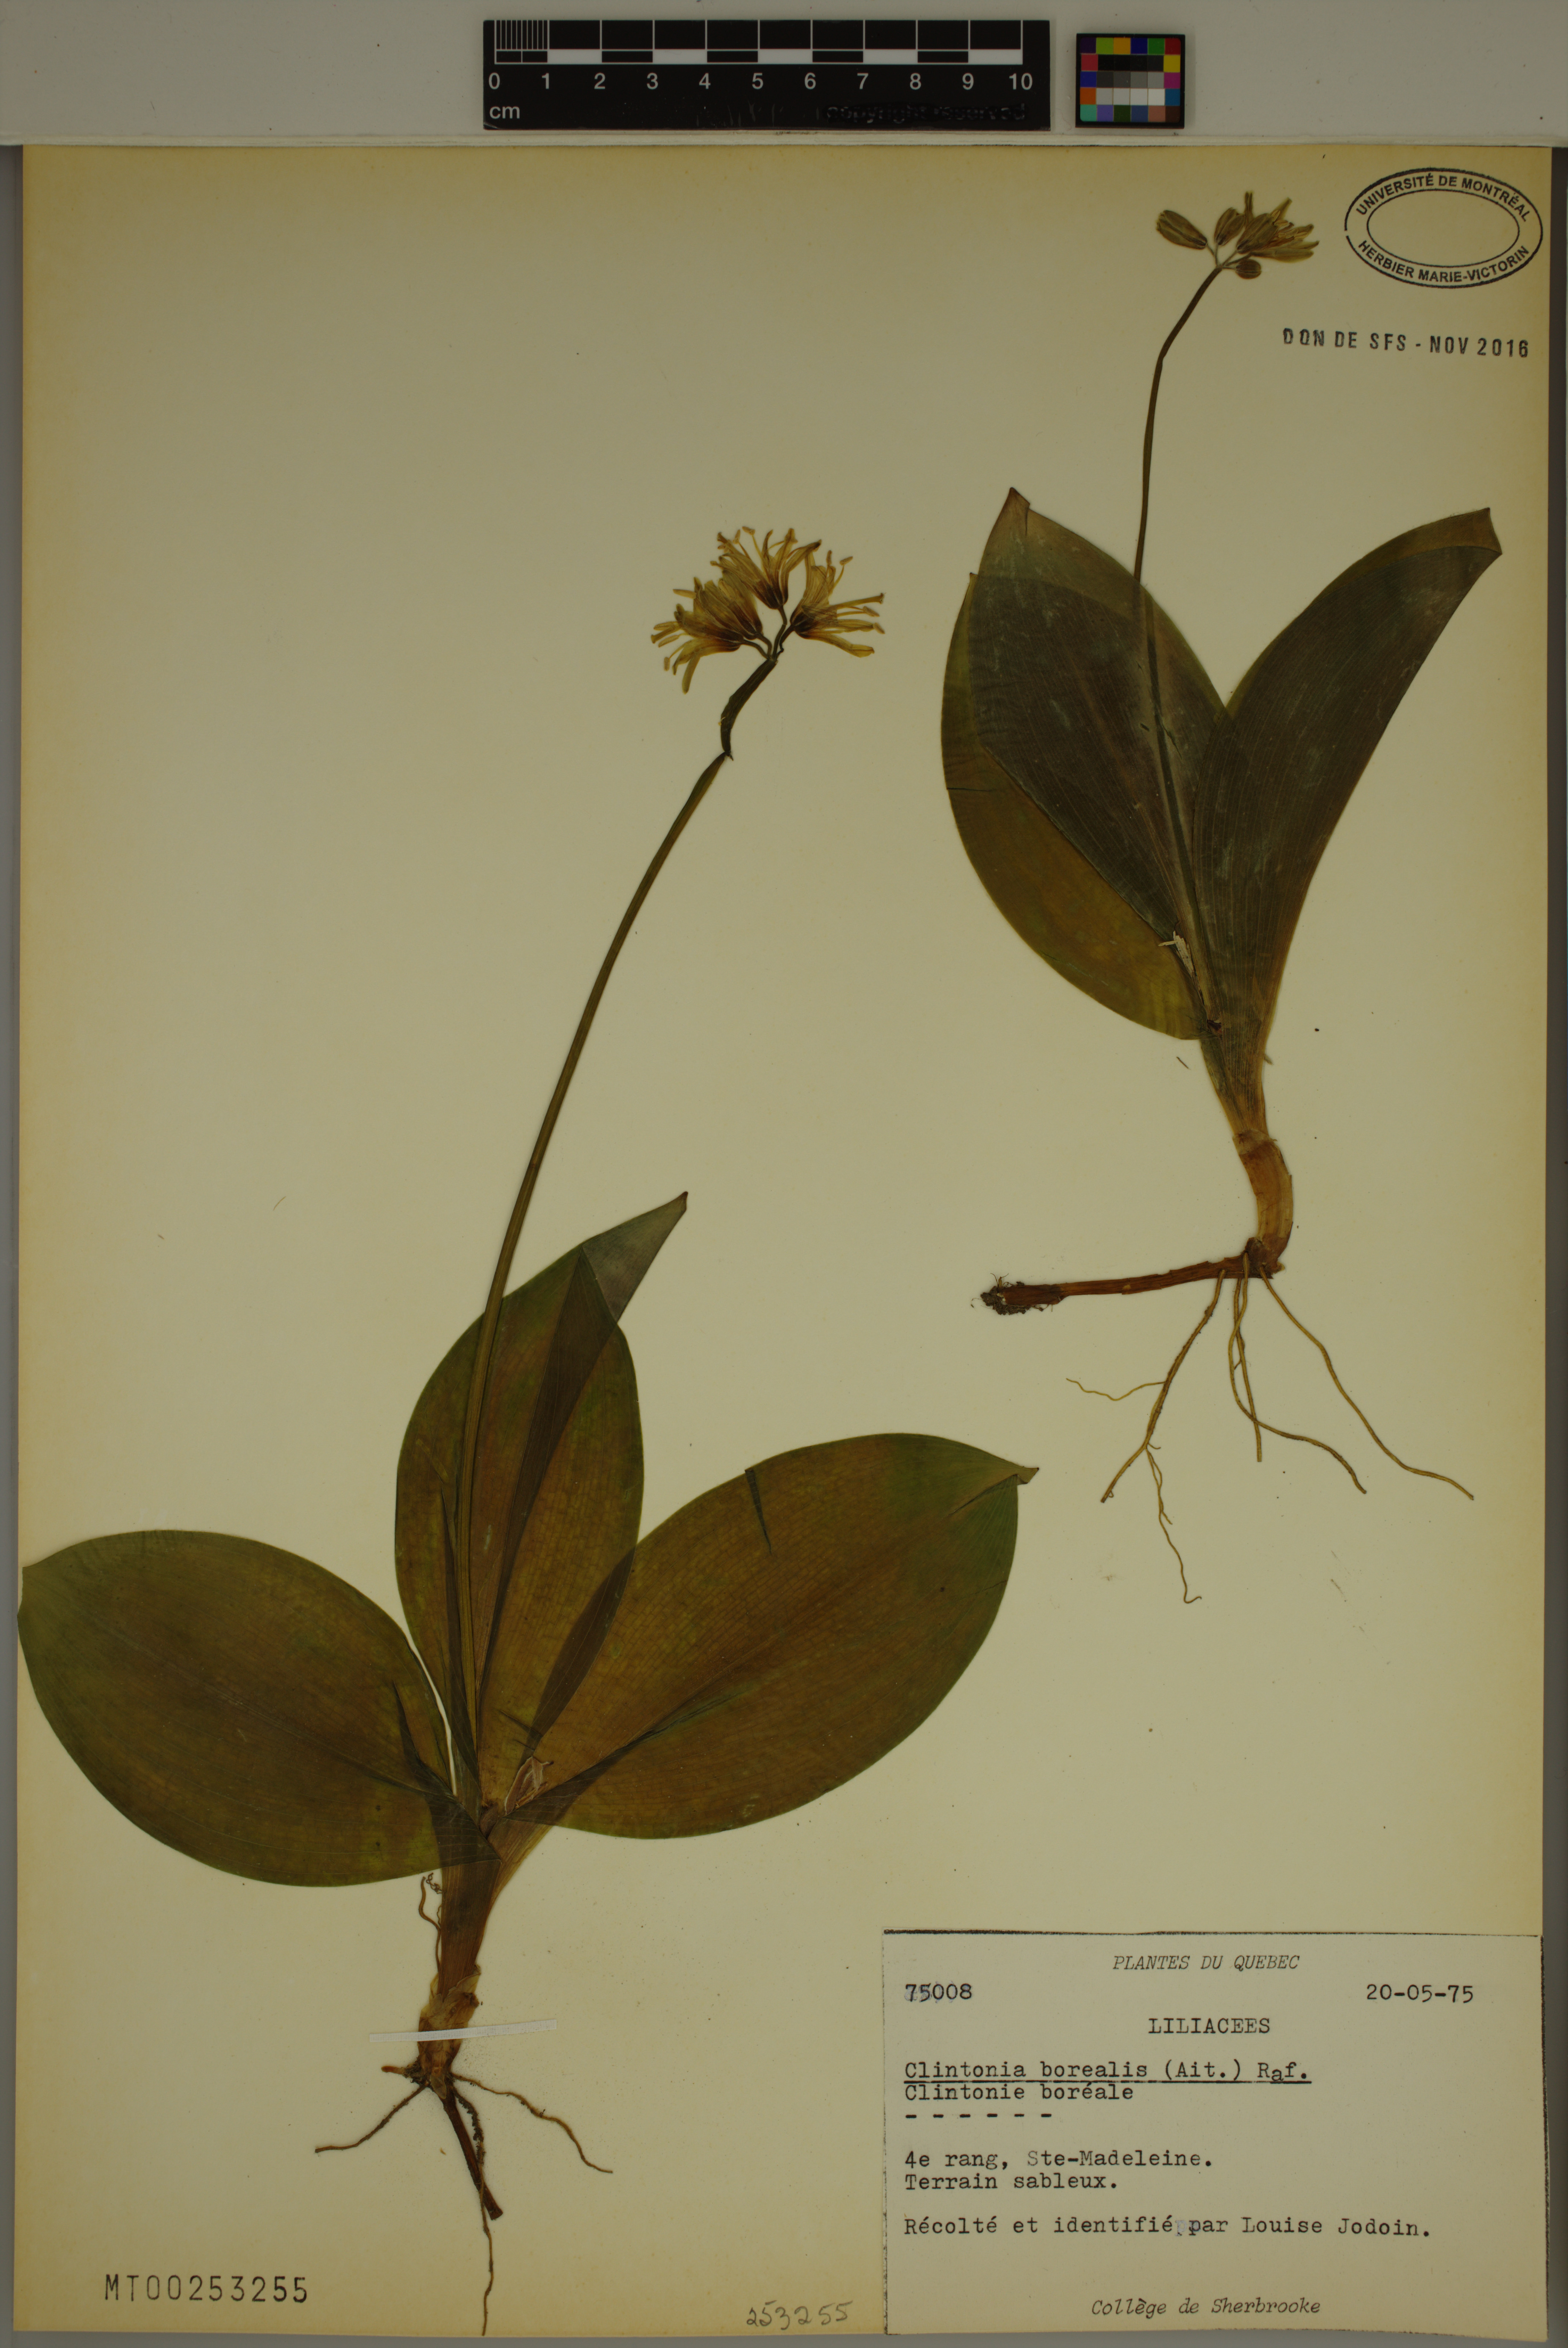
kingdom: Plantae
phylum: Tracheophyta
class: Liliopsida
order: Liliales
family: Liliaceae
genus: Clintonia
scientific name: Clintonia borealis
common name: Yellow clintonia
